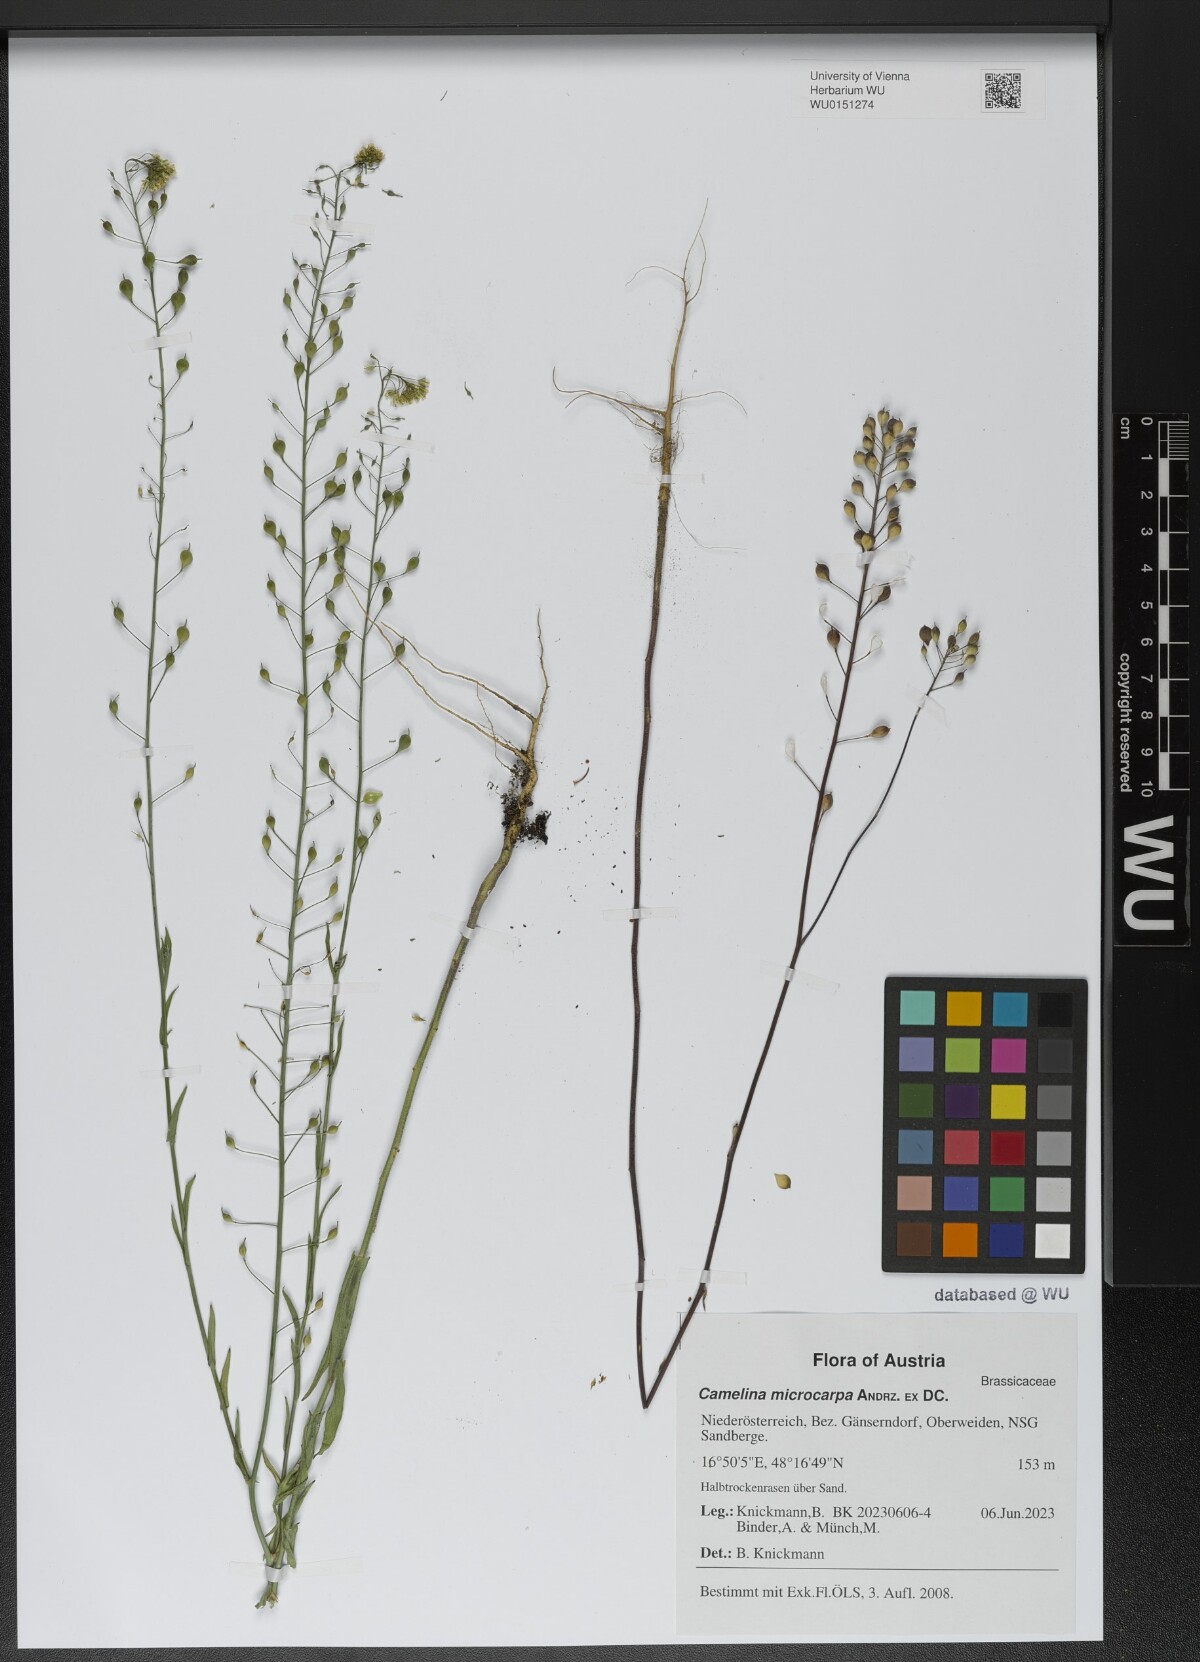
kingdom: Plantae
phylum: Tracheophyta
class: Magnoliopsida
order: Brassicales
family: Brassicaceae
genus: Camelina
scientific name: Camelina microcarpa
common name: Lesser gold-of-pleasure
